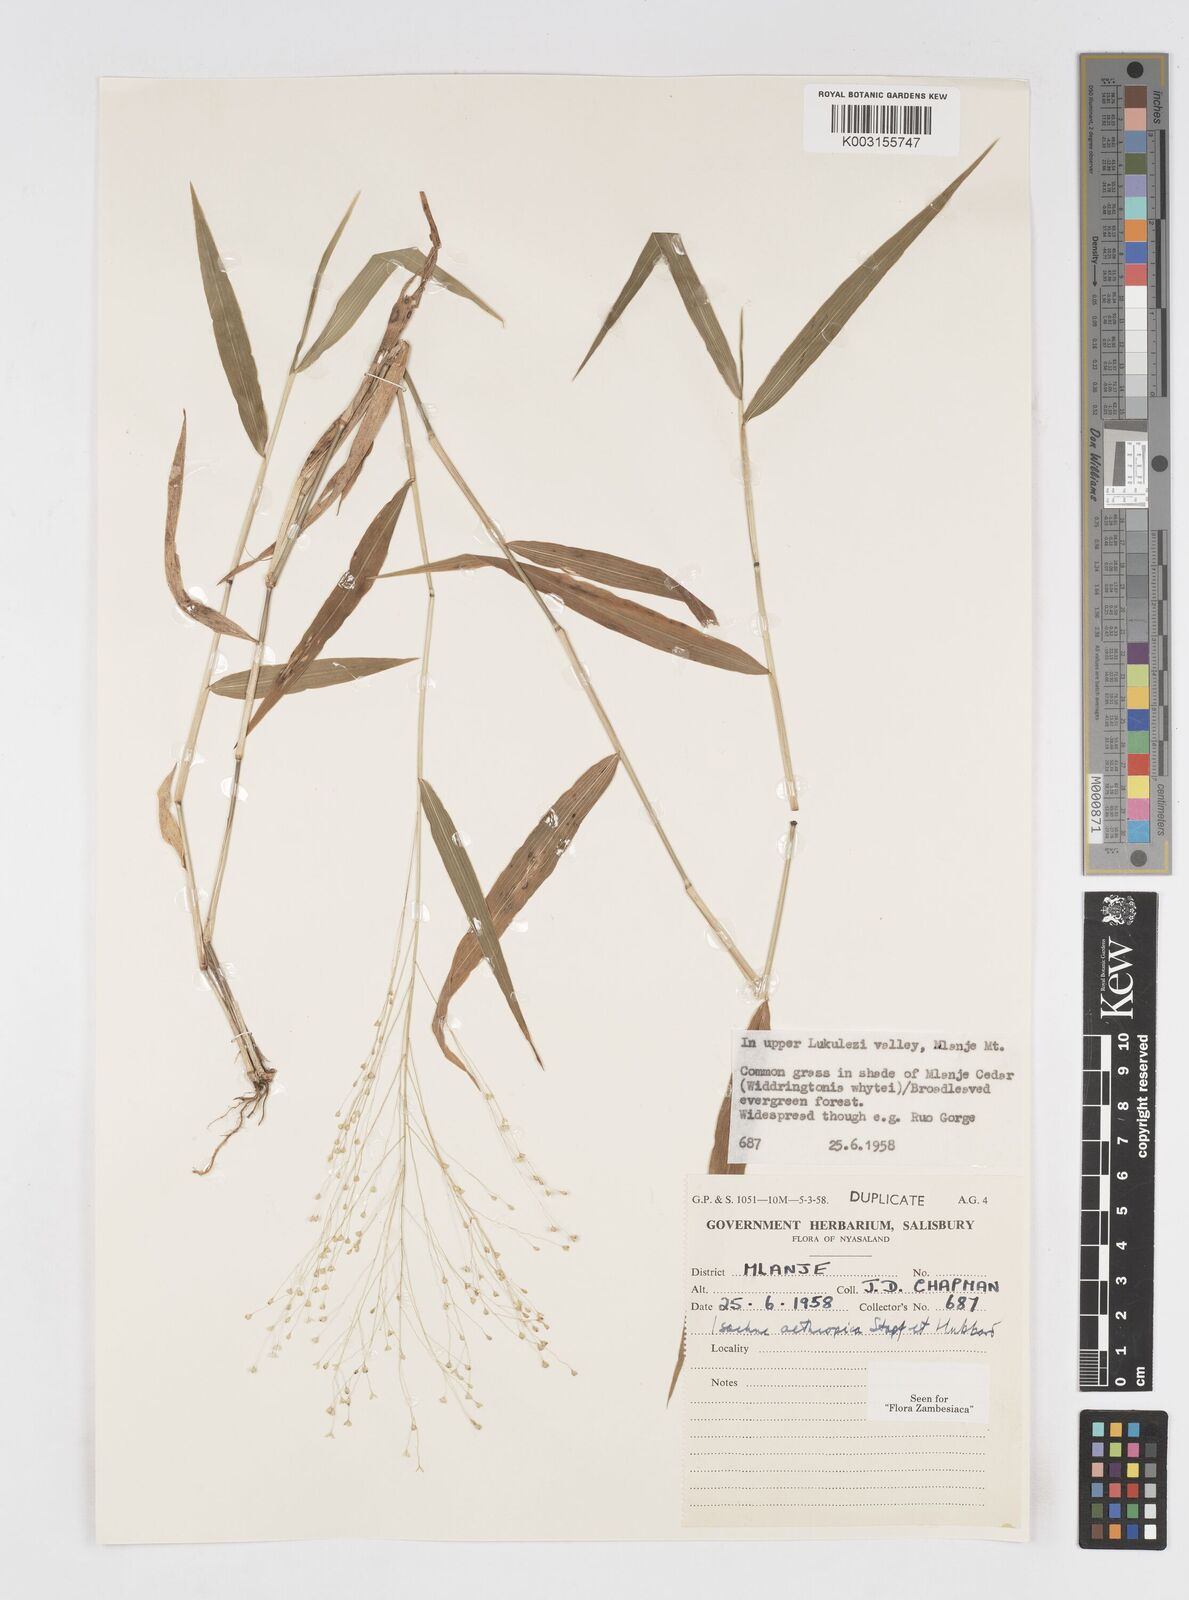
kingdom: Plantae
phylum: Tracheophyta
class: Liliopsida
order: Poales
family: Poaceae
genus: Isachne
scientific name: Isachne mauritiana
